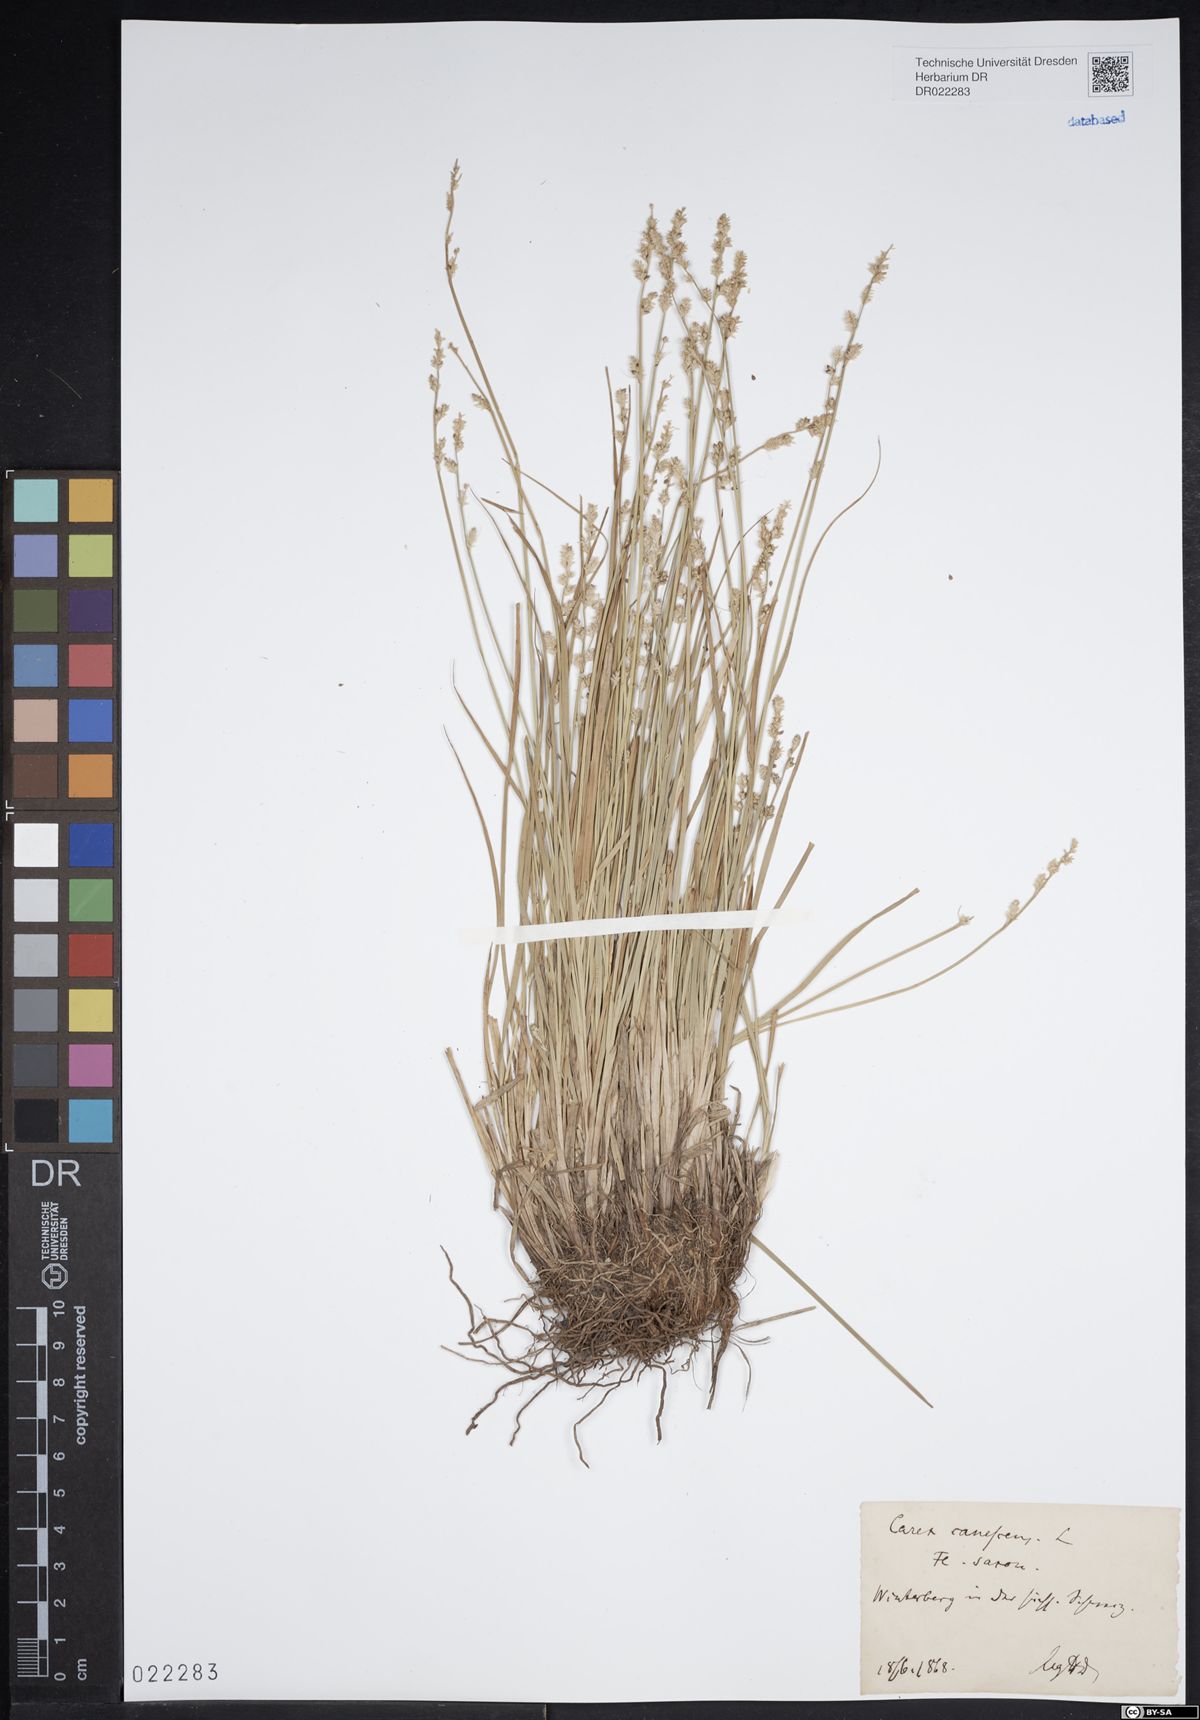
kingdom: Plantae
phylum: Tracheophyta
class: Liliopsida
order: Poales
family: Cyperaceae
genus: Carex
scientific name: Carex canescens
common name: White sedge
